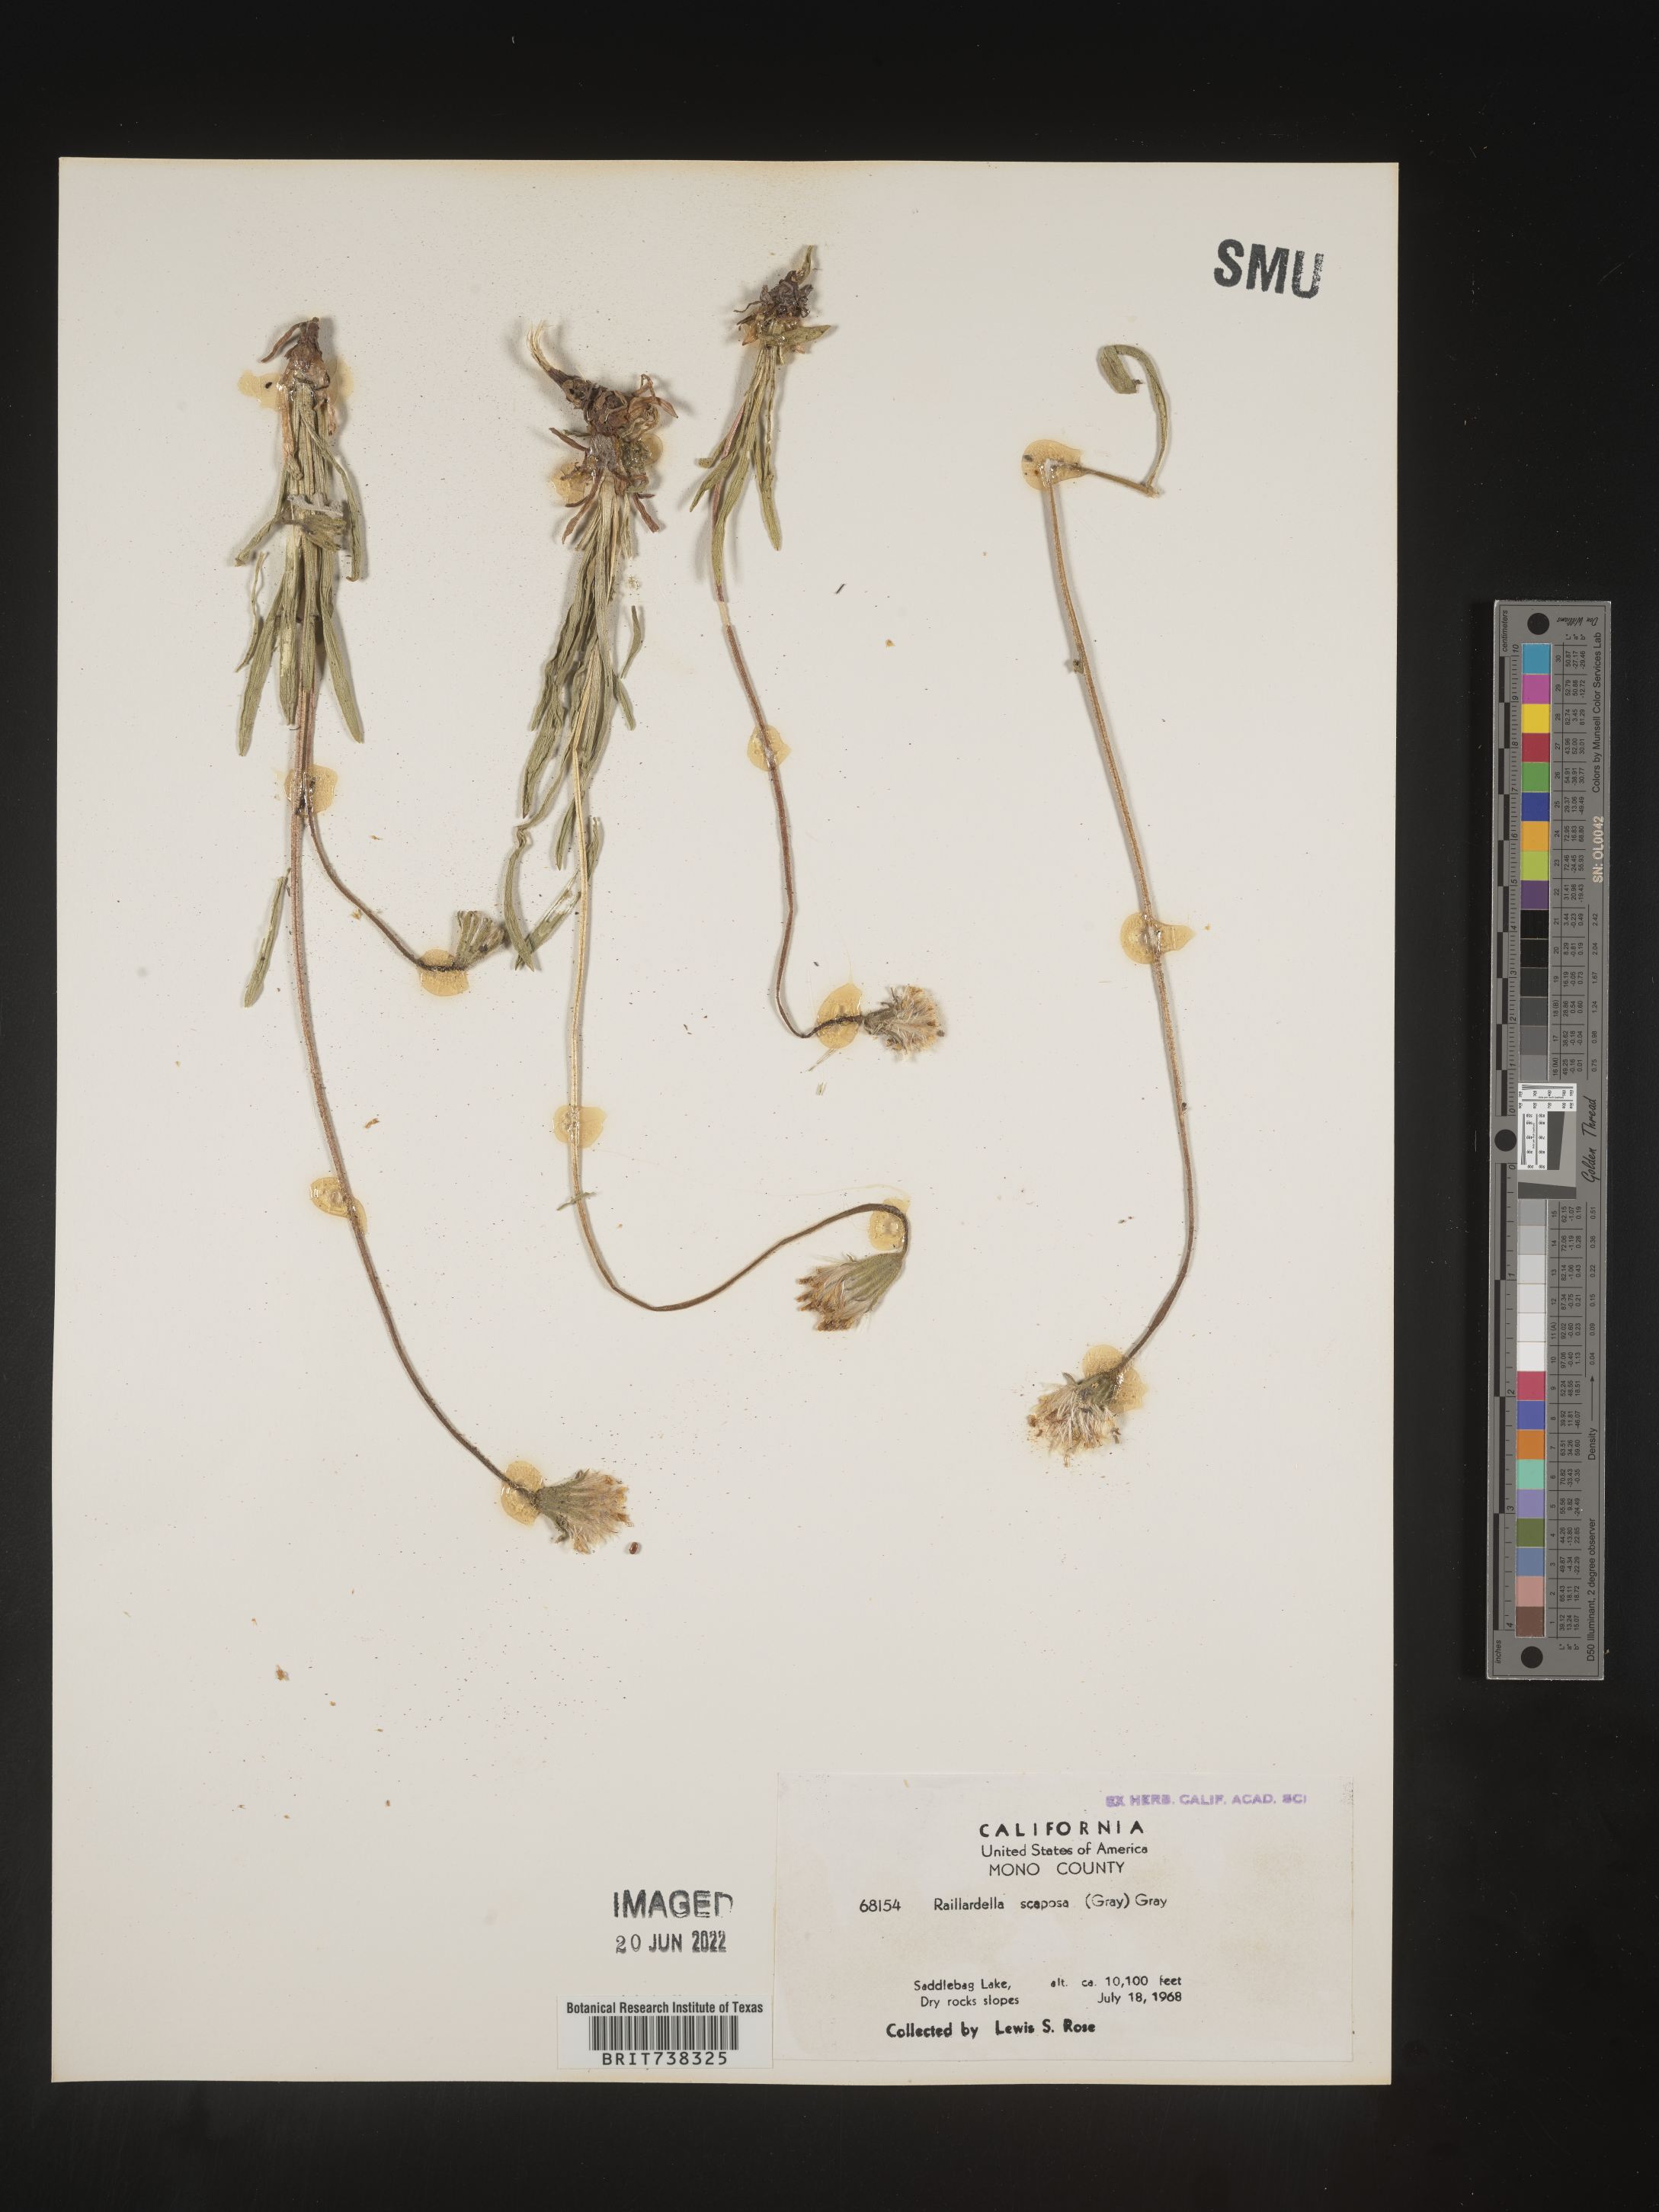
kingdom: Plantae
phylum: Tracheophyta
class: Magnoliopsida
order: Asterales
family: Asteraceae
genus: Raillardella
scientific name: Raillardella
